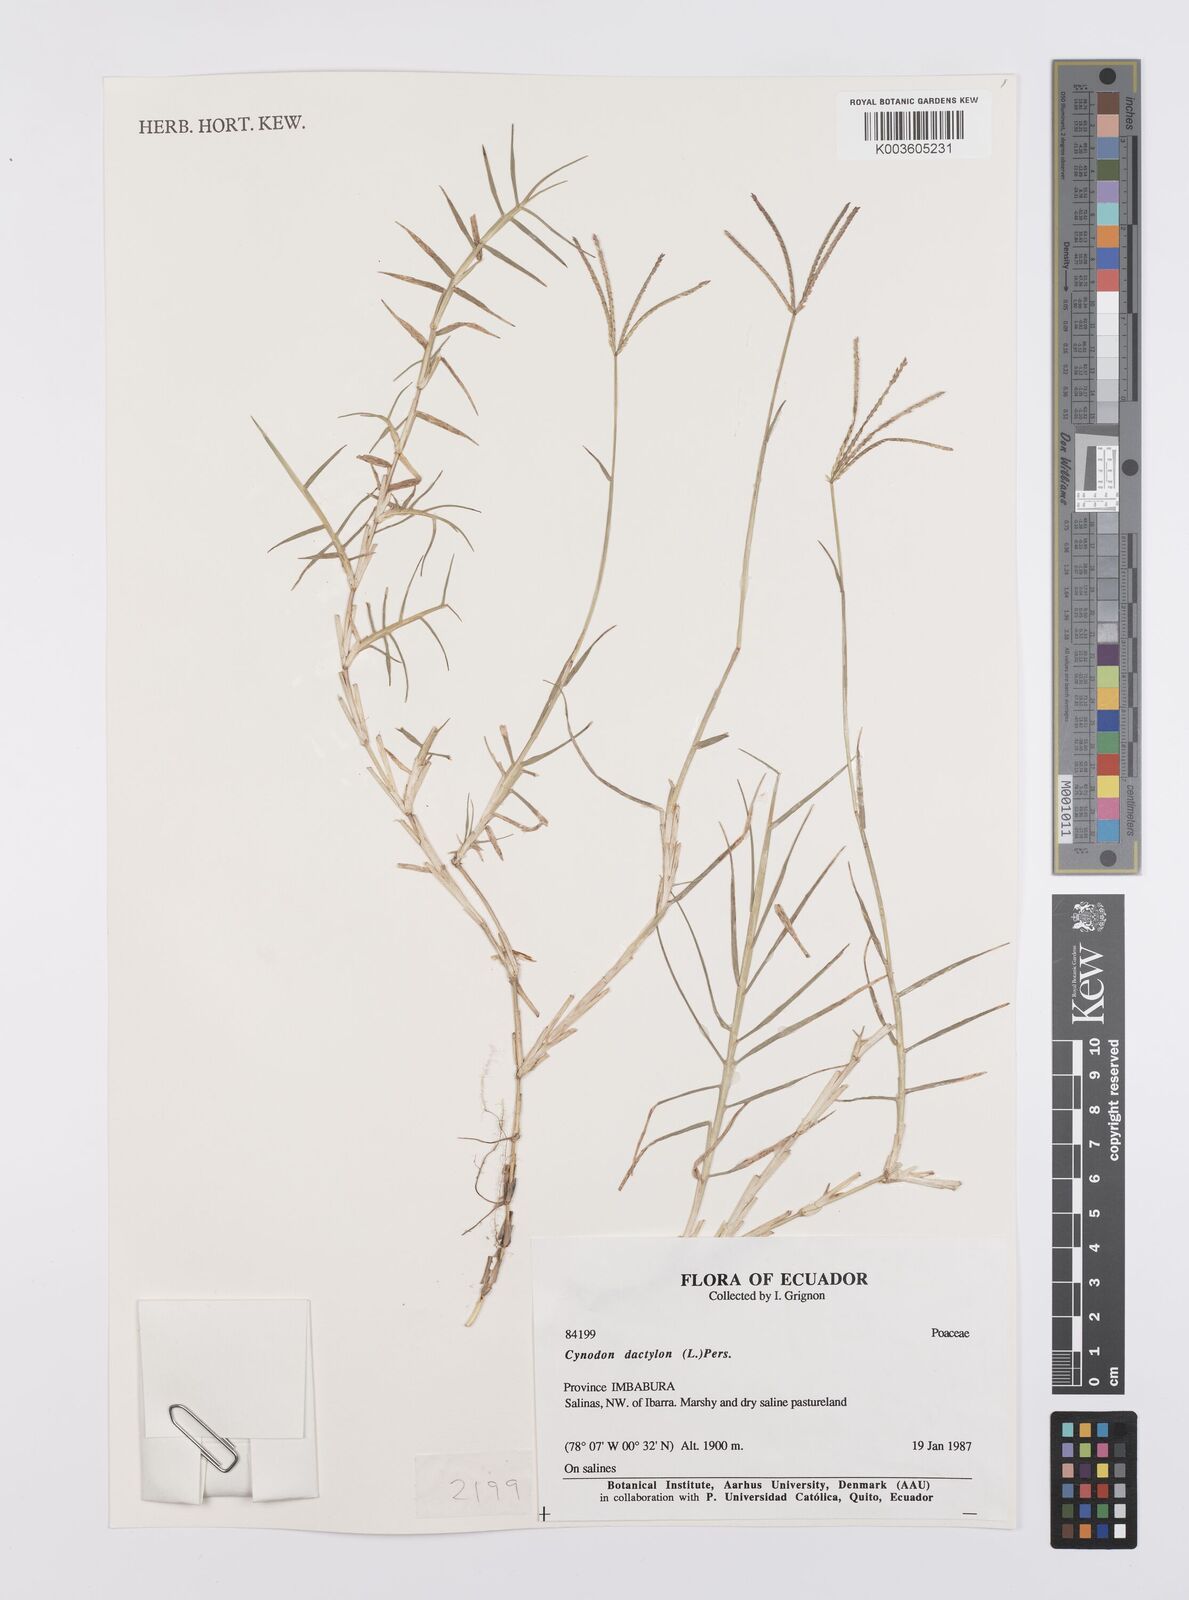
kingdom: Plantae
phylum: Tracheophyta
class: Liliopsida
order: Poales
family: Poaceae
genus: Cynodon
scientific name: Cynodon dactylon
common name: Bermuda grass
